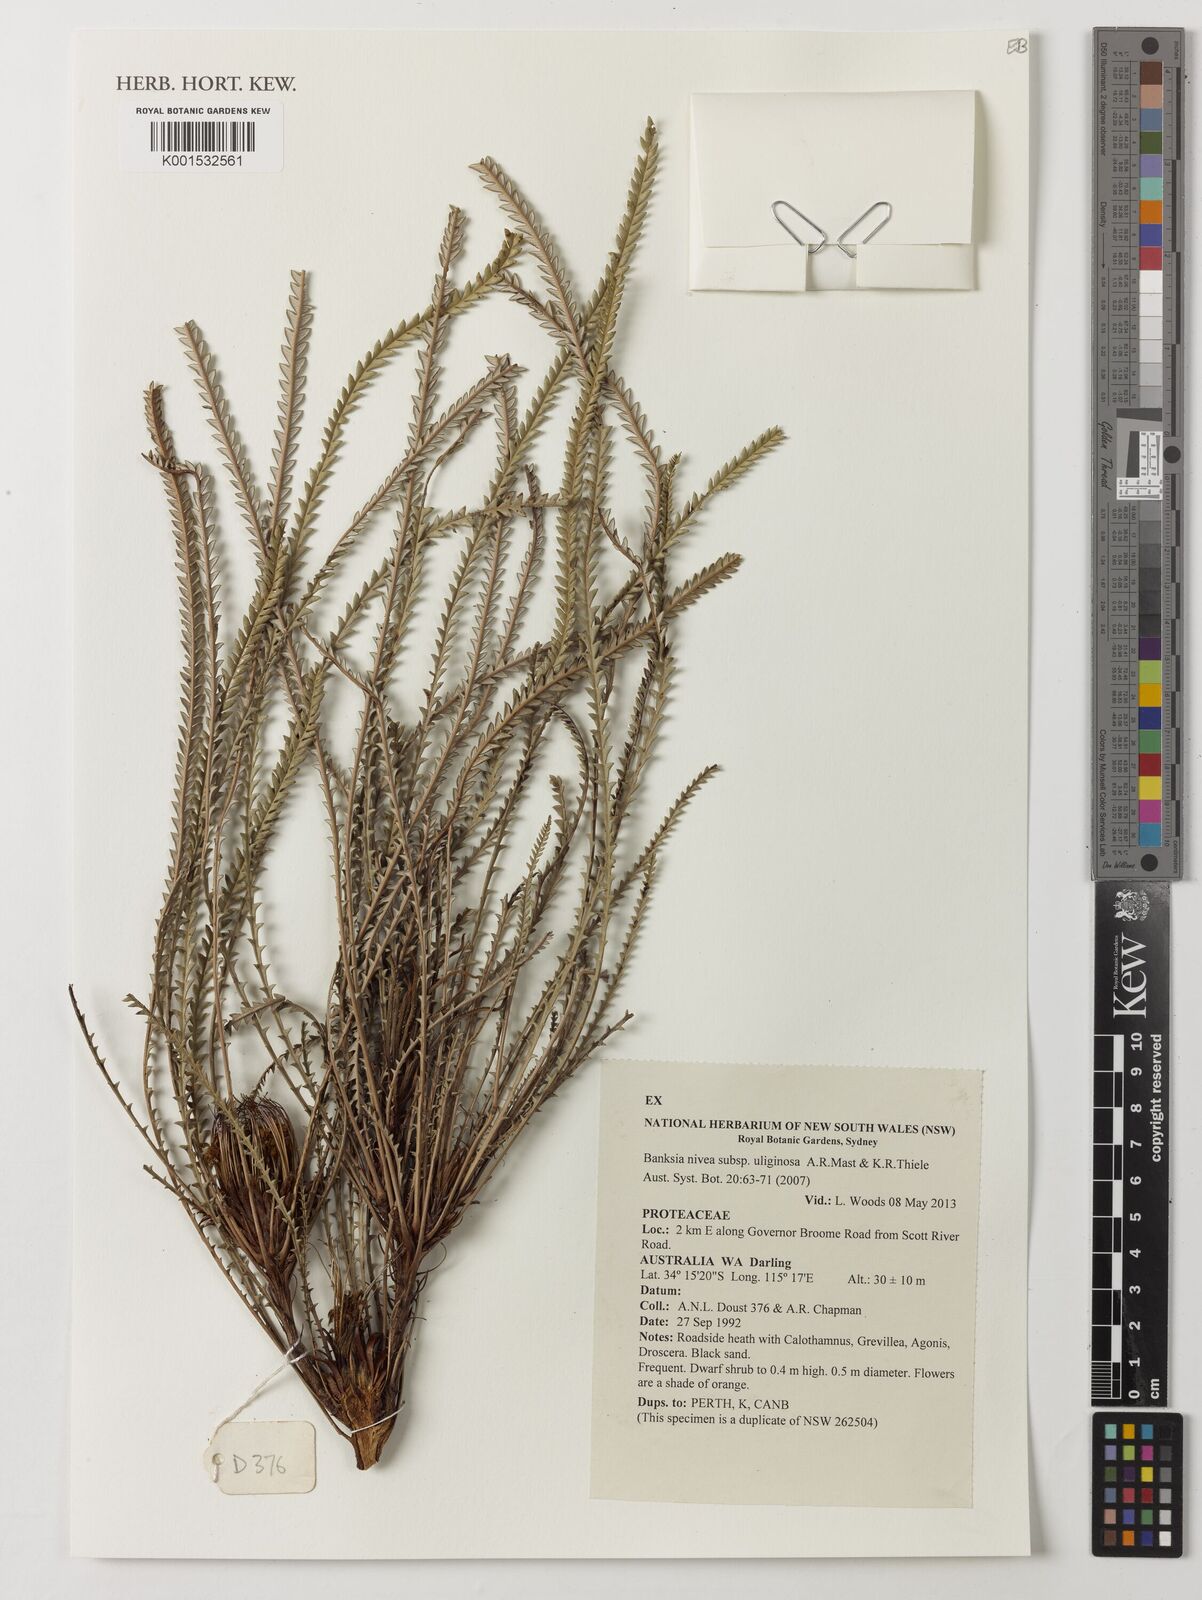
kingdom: Plantae
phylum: Tracheophyta
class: Magnoliopsida
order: Proteales
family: Proteaceae
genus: Banksia
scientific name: Banksia nivea
